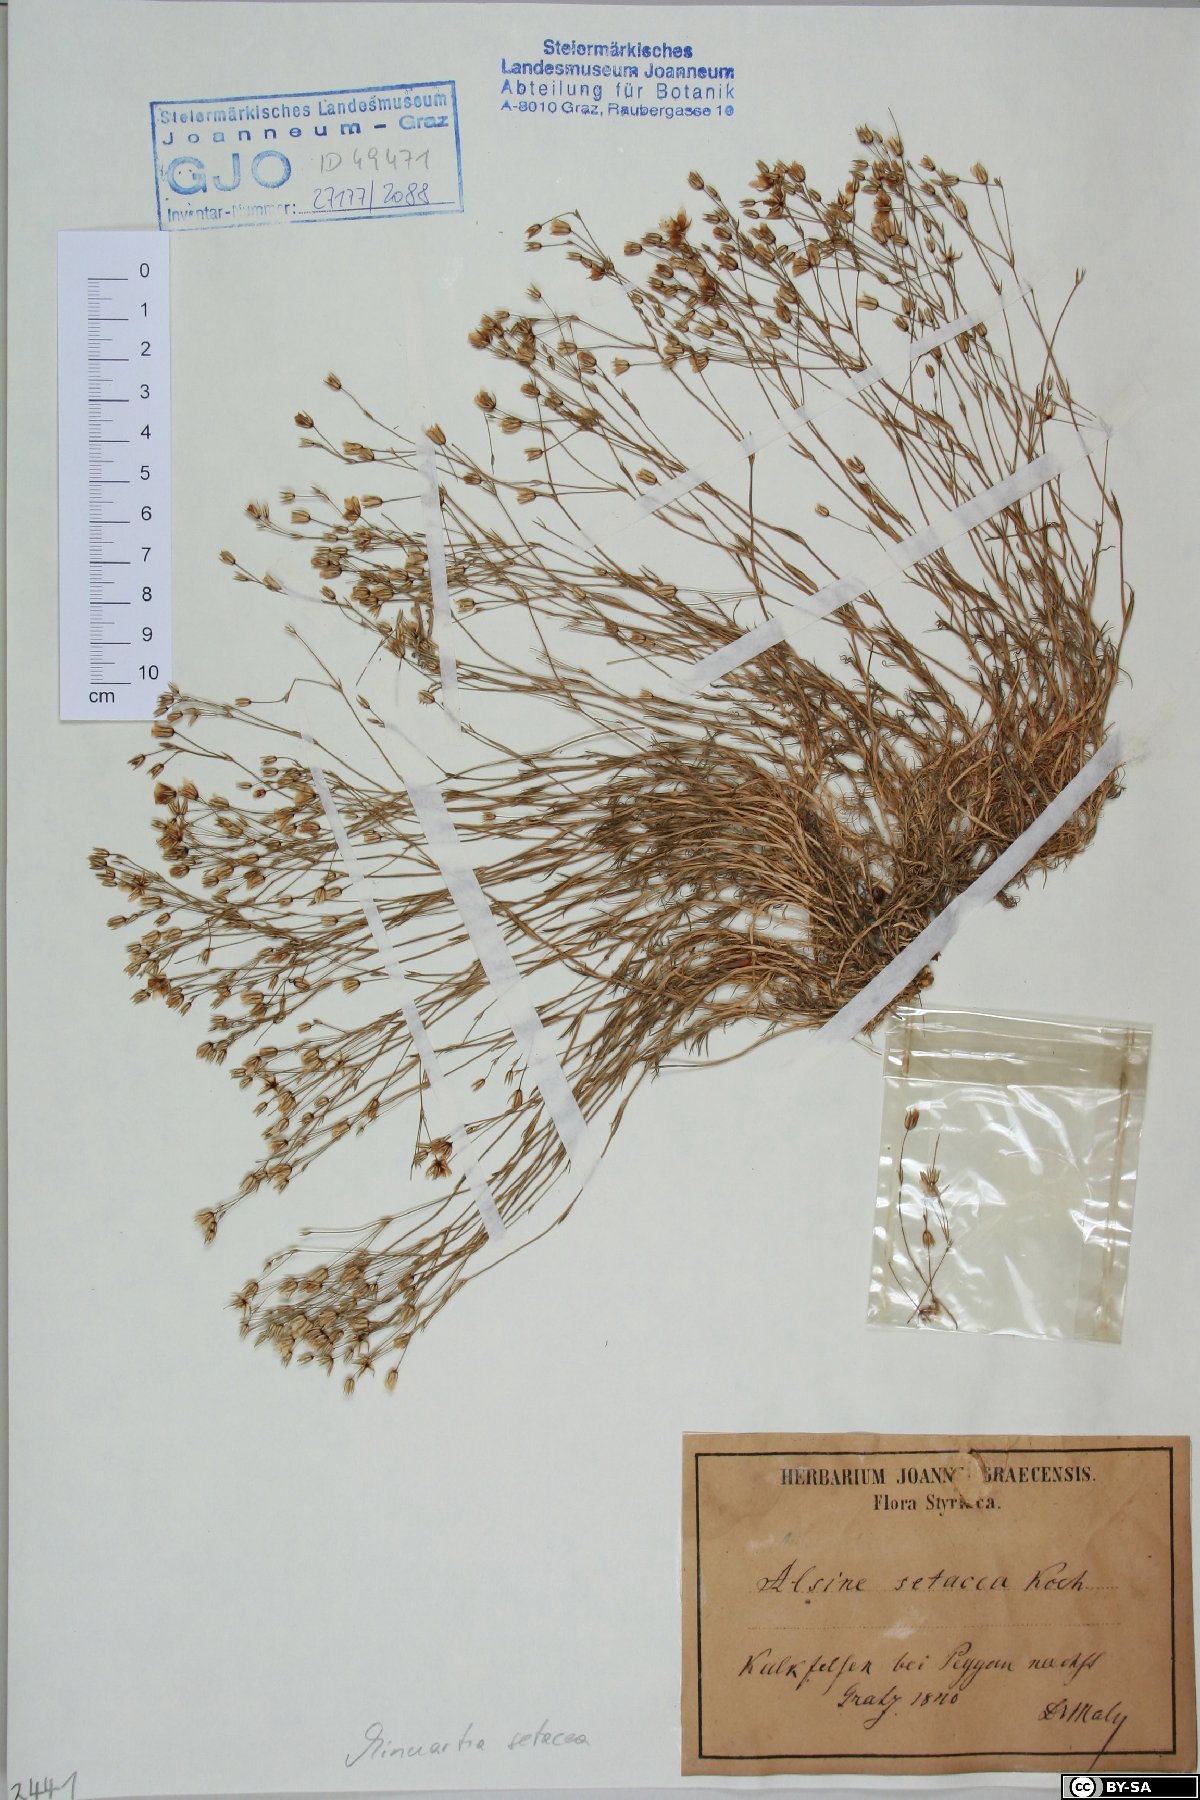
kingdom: Plantae
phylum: Tracheophyta
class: Magnoliopsida
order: Caryophyllales
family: Caryophyllaceae
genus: Minuartia
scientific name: Minuartia setacea
